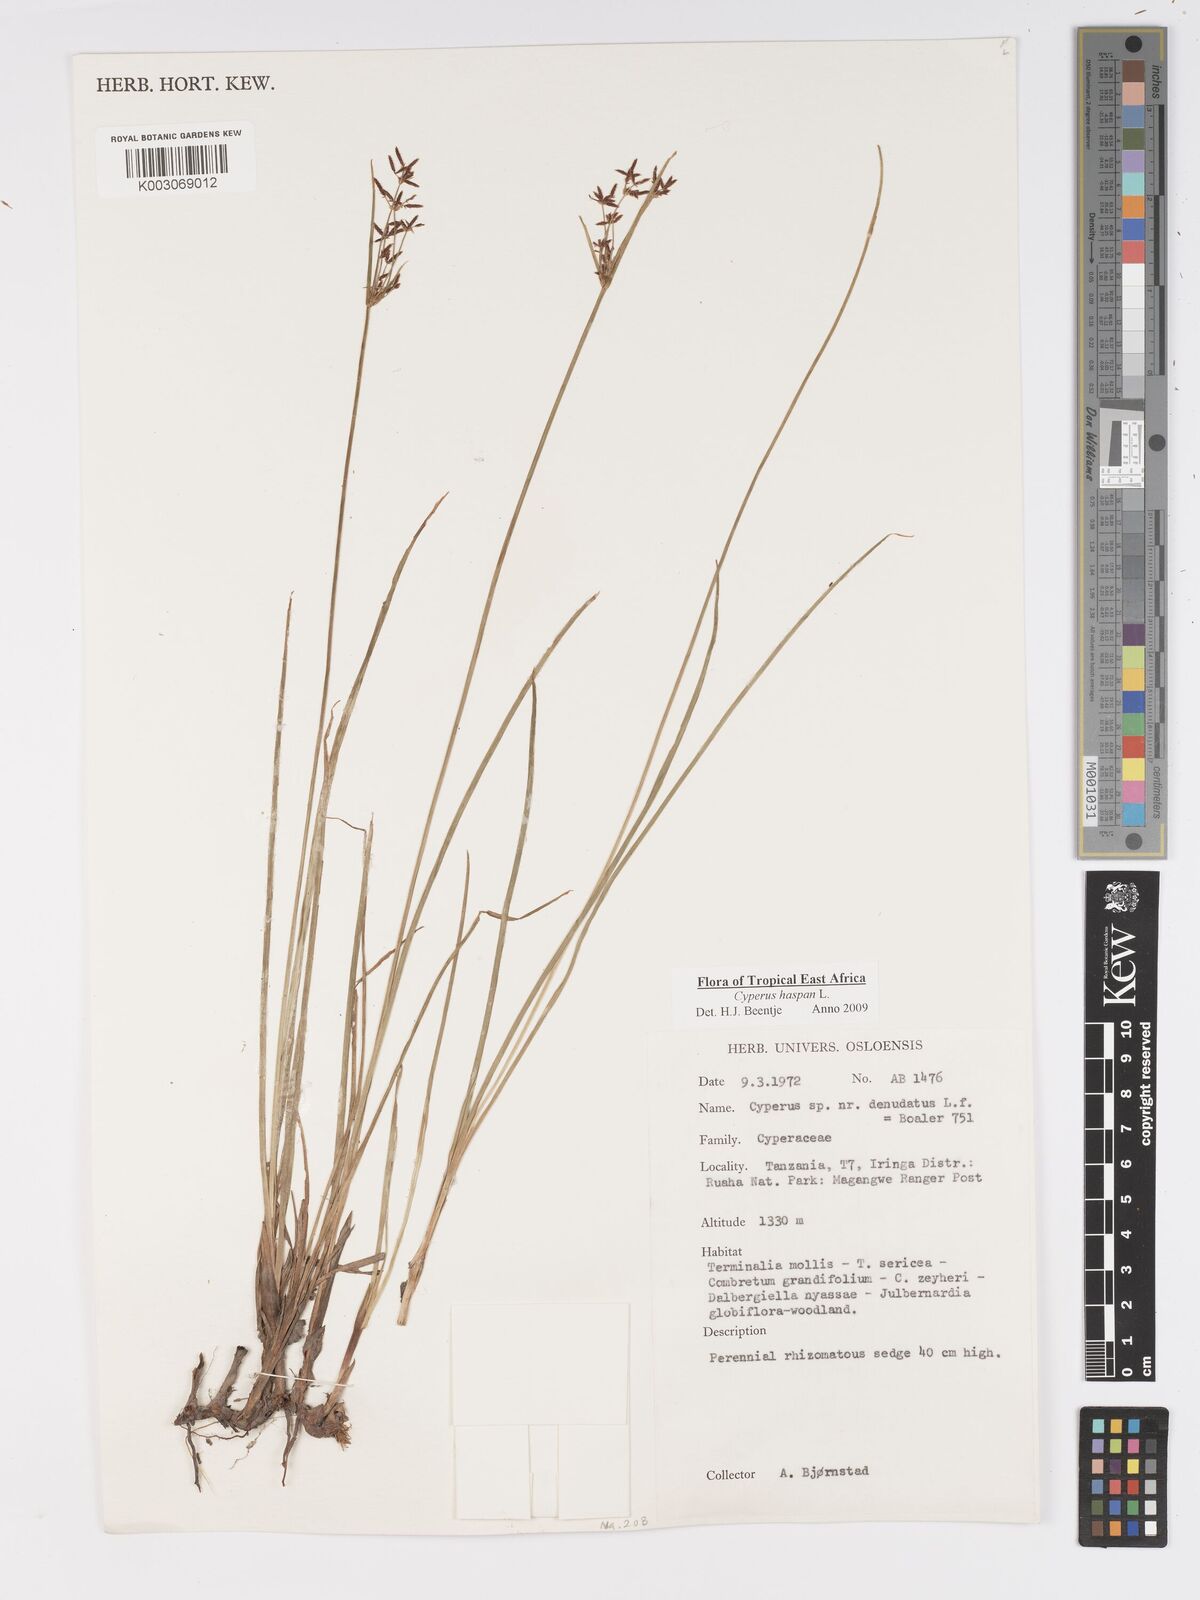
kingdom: Plantae
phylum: Tracheophyta
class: Liliopsida
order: Poales
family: Cyperaceae
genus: Cyperus
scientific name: Cyperus
